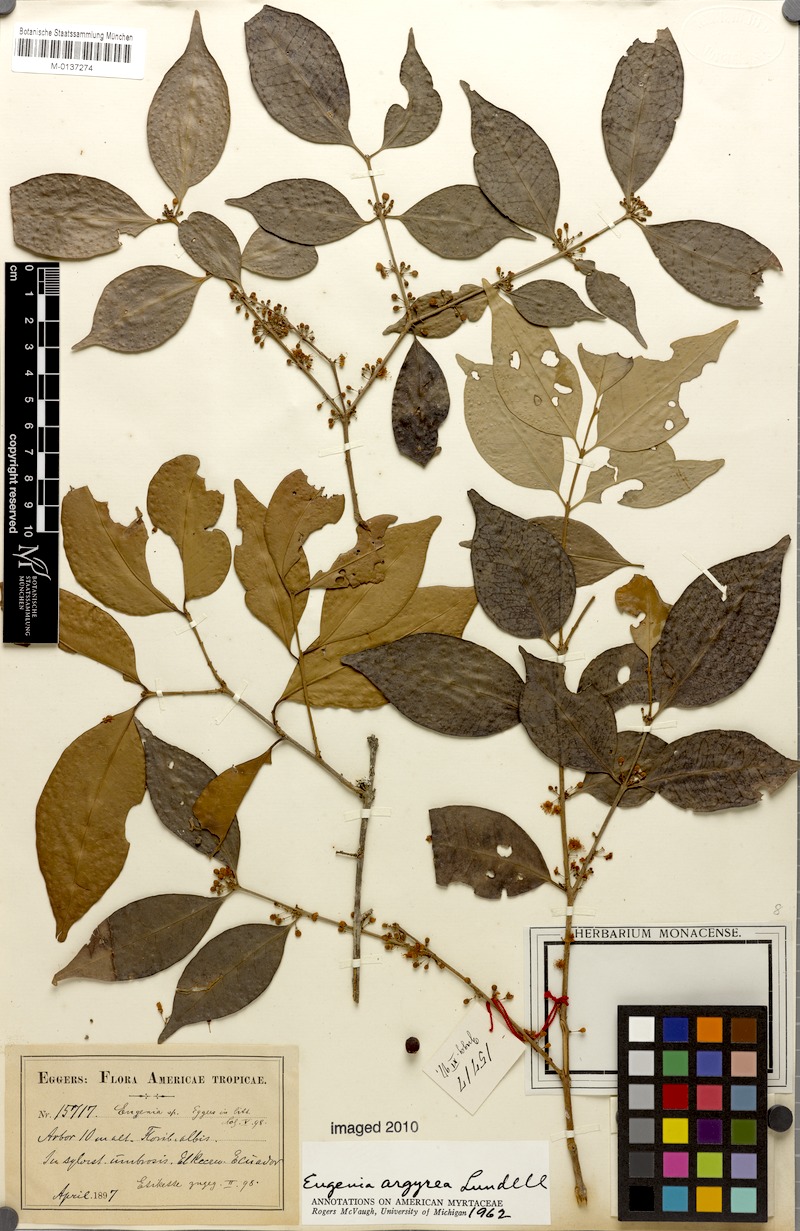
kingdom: Plantae
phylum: Tracheophyta
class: Magnoliopsida
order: Myrtales
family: Myrtaceae
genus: Eugenia
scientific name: Eugenia galalonensis
